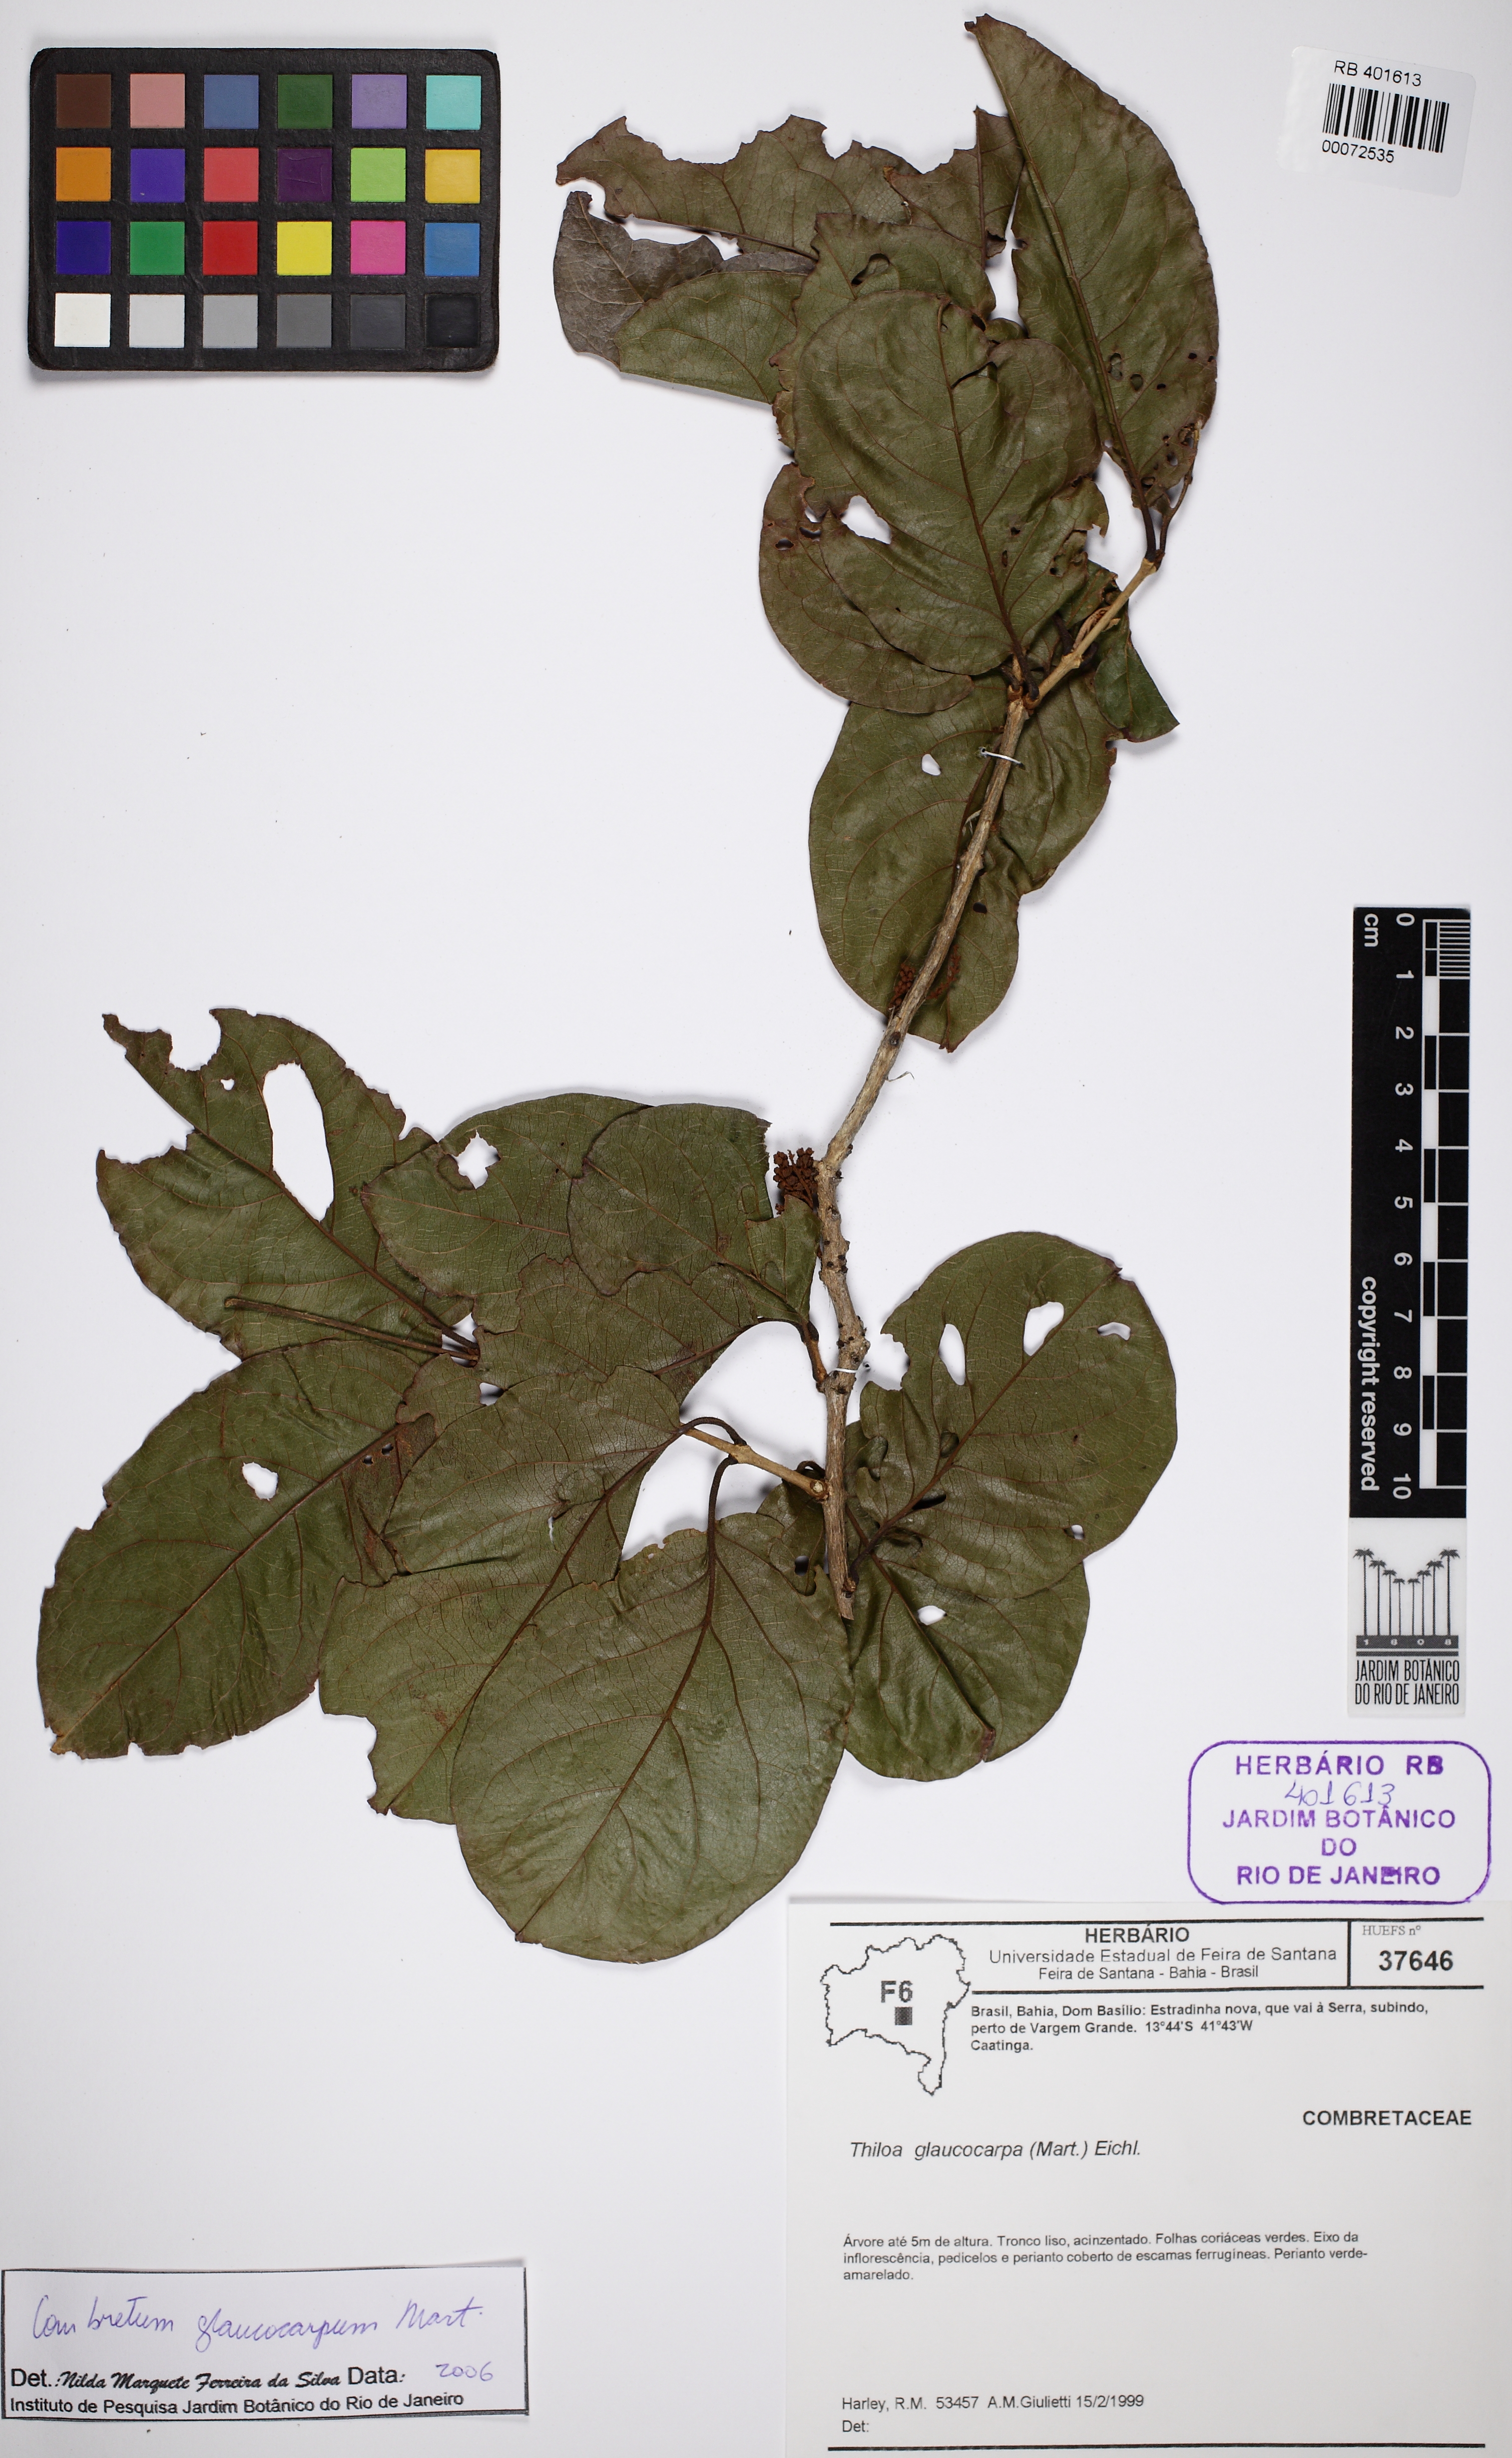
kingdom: Plantae
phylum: Tracheophyta
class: Magnoliopsida
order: Myrtales
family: Combretaceae
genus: Combretum
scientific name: Combretum glaucocarpum
